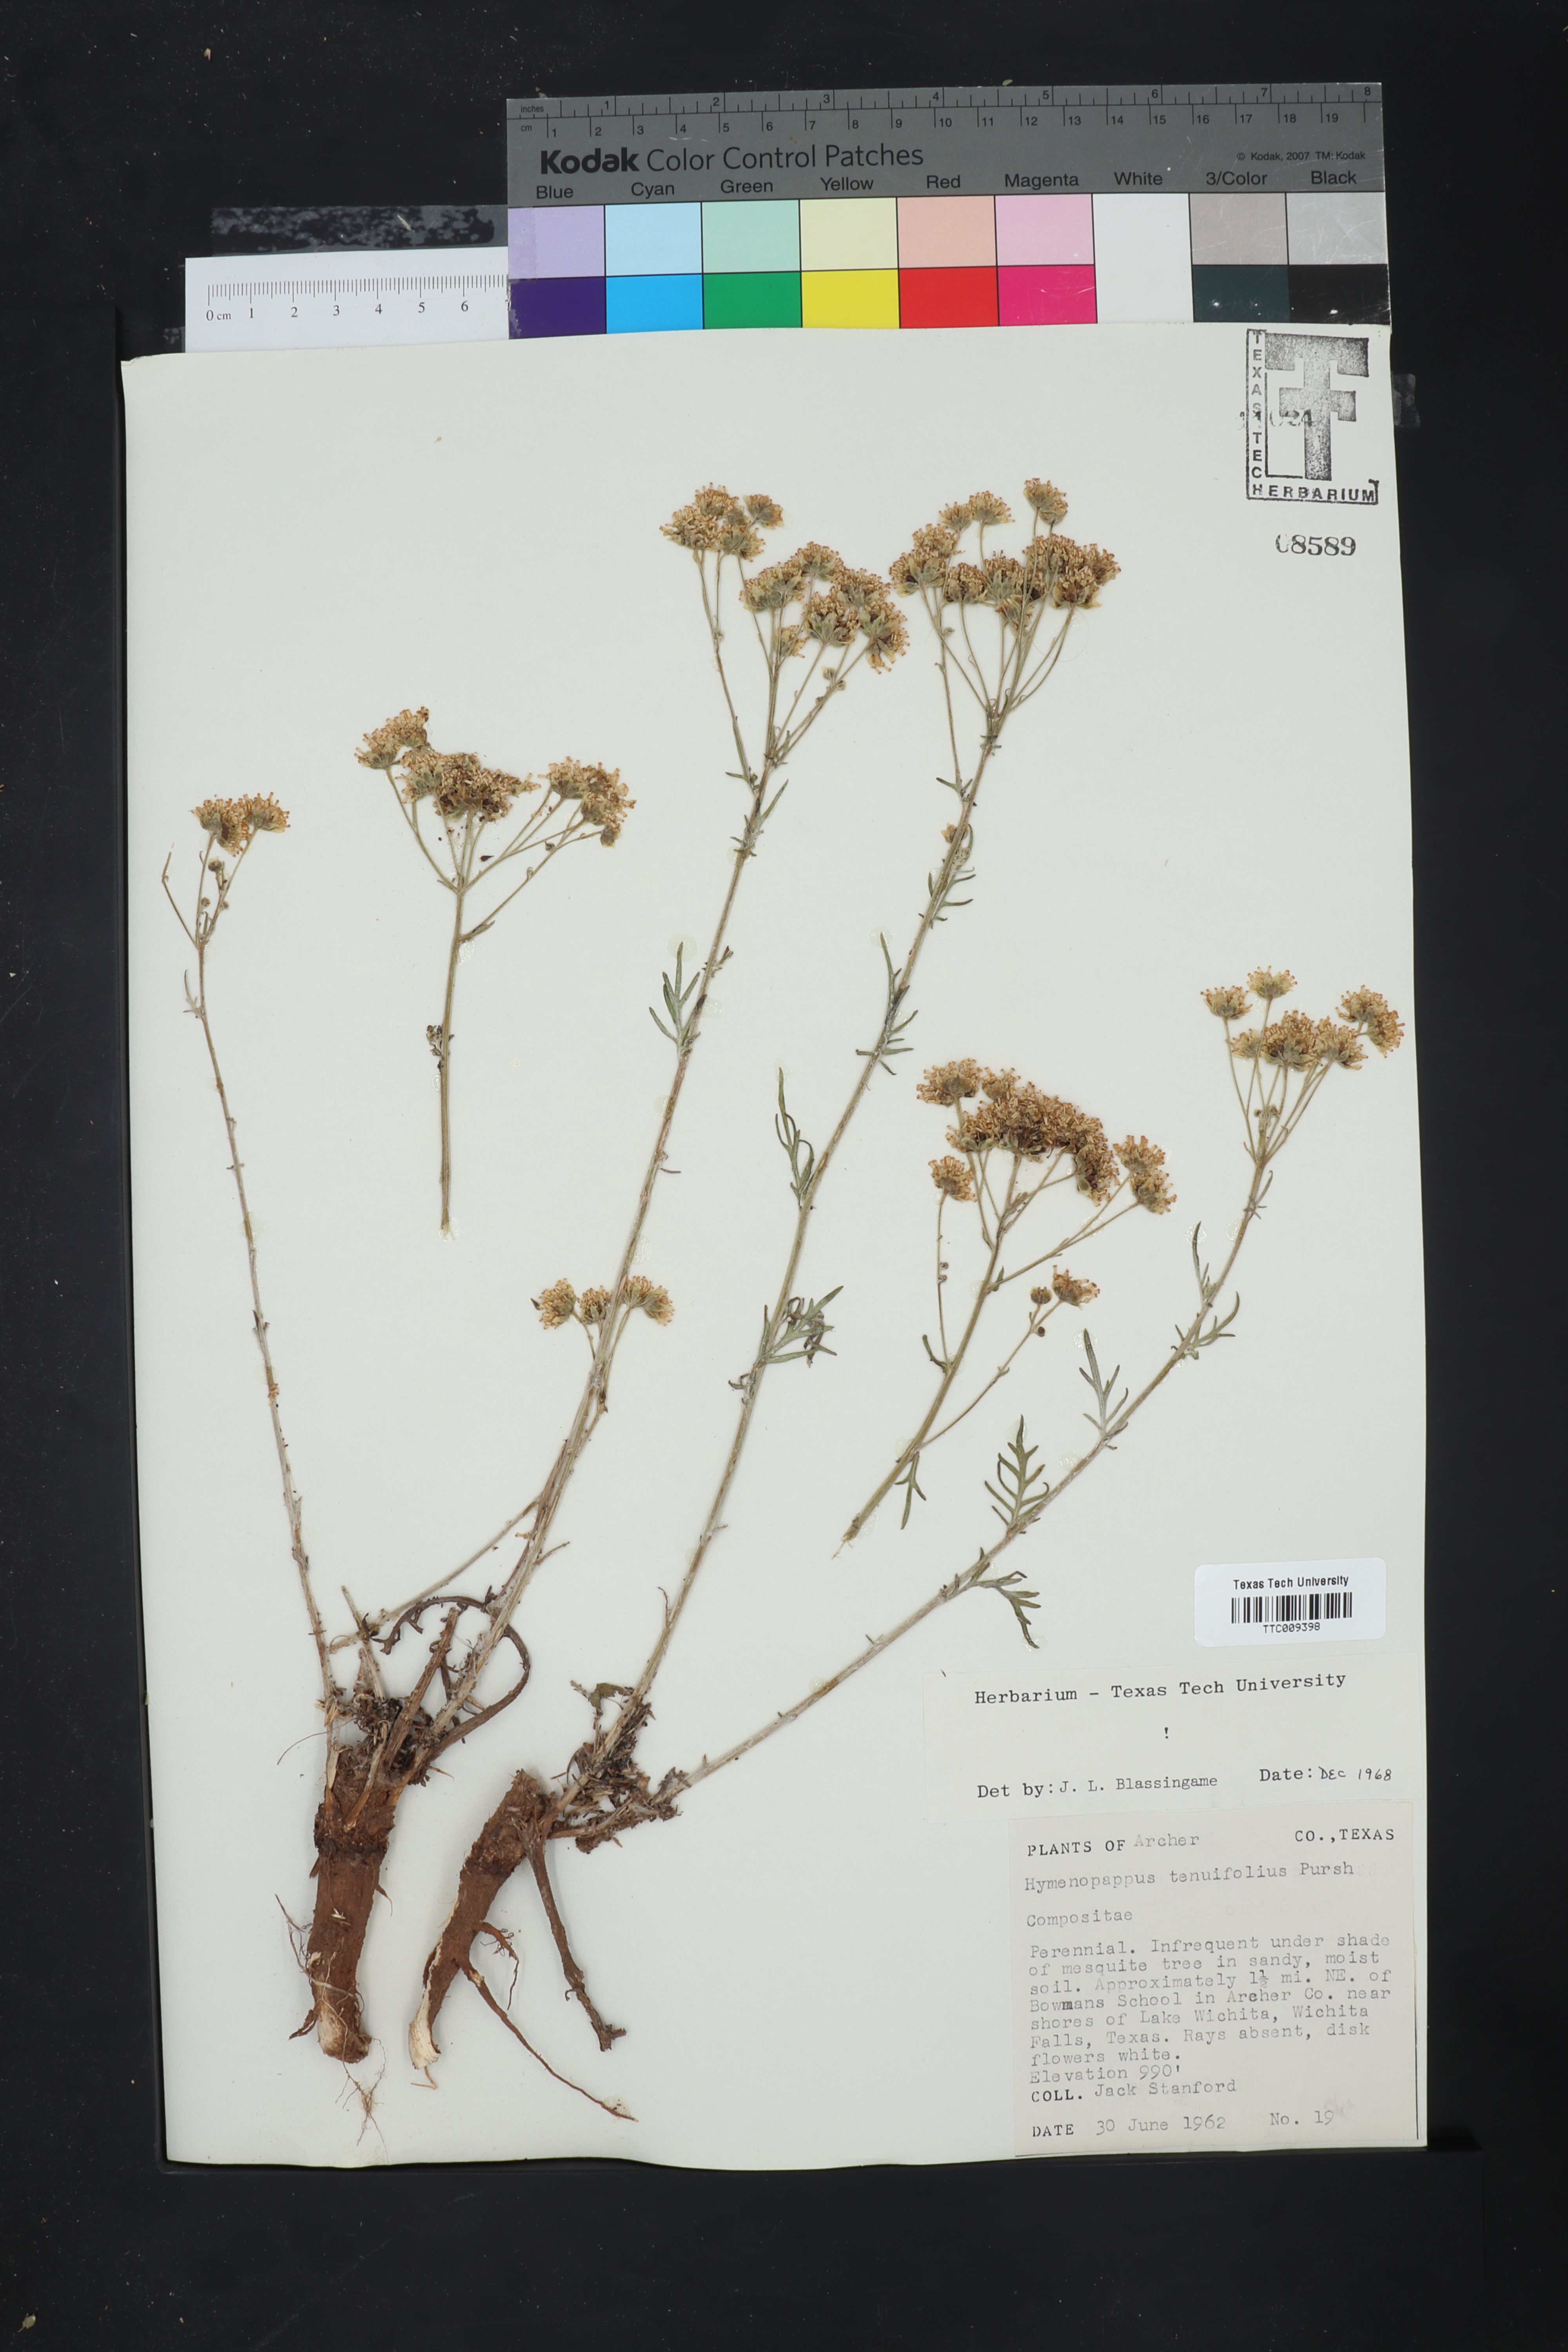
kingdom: Plantae
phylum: Tracheophyta
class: Magnoliopsida
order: Asterales
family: Asteraceae
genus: Hymenopappus
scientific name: Hymenopappus tenuifolius
